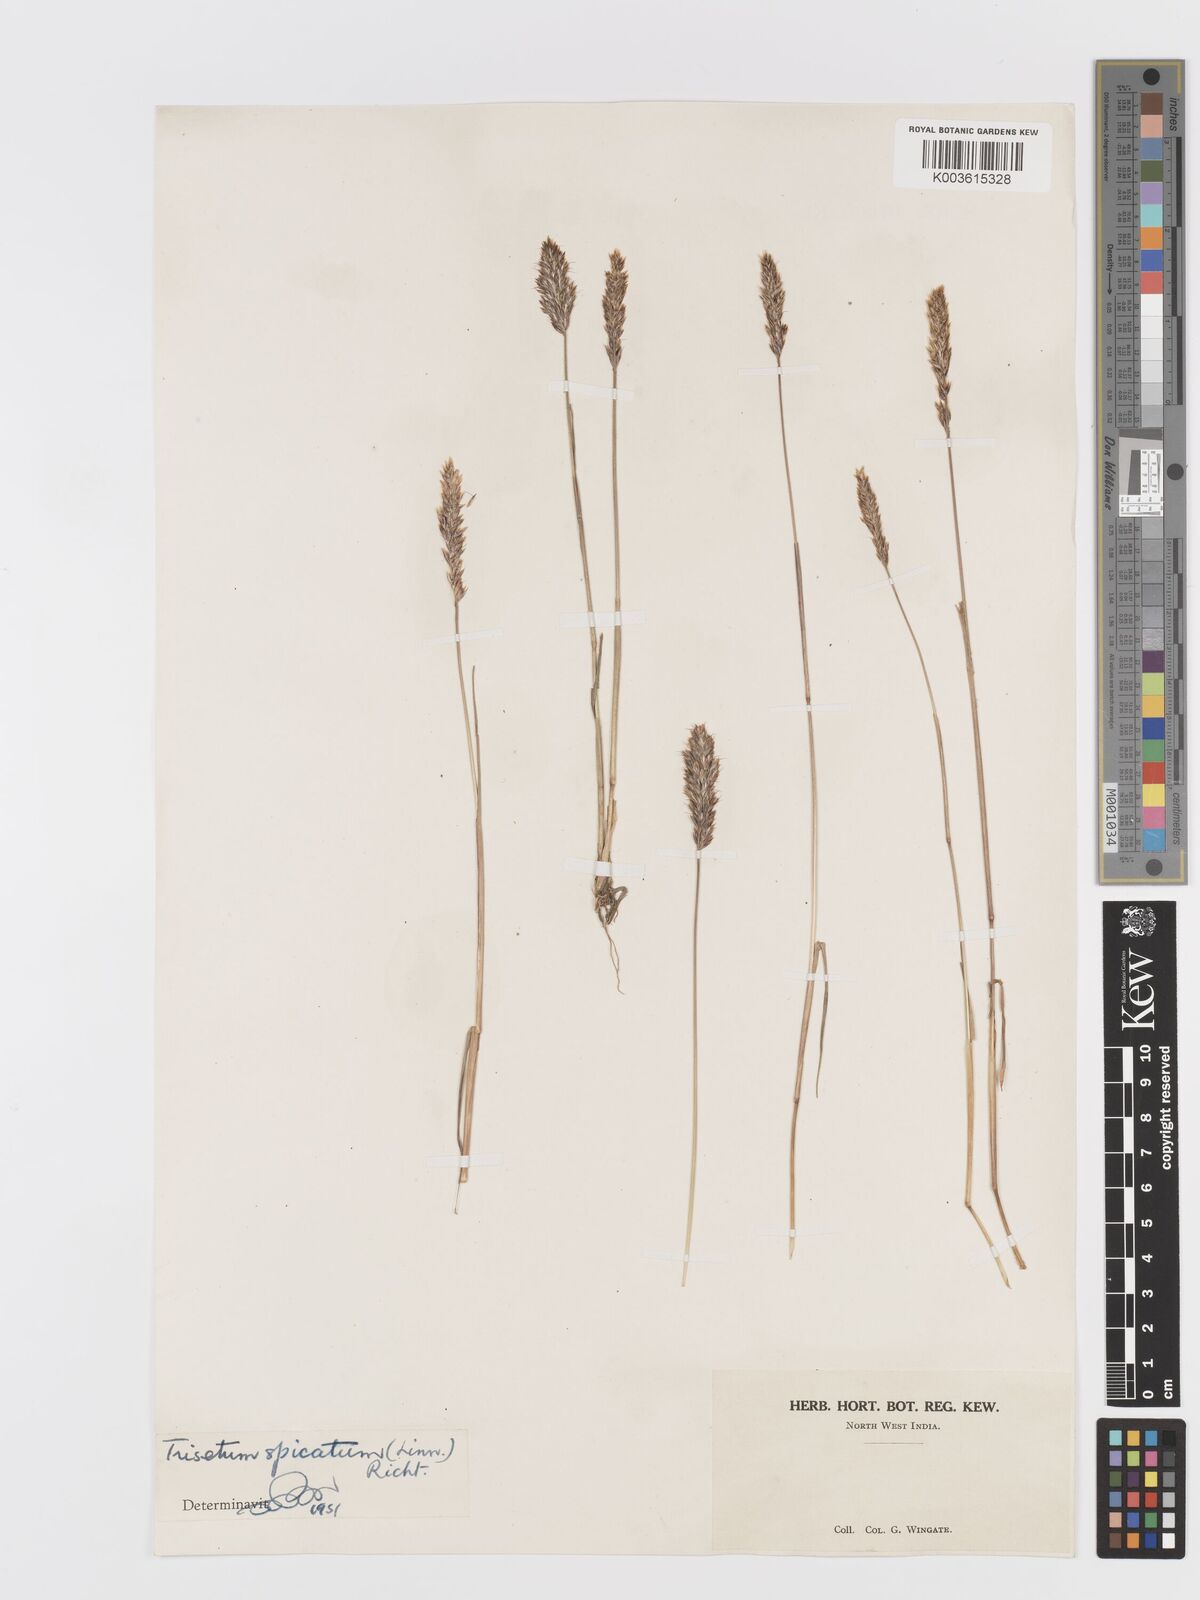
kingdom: Plantae
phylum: Tracheophyta
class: Liliopsida
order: Poales
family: Poaceae
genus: Koeleria
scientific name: Koeleria spicata
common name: Mountain trisetum
